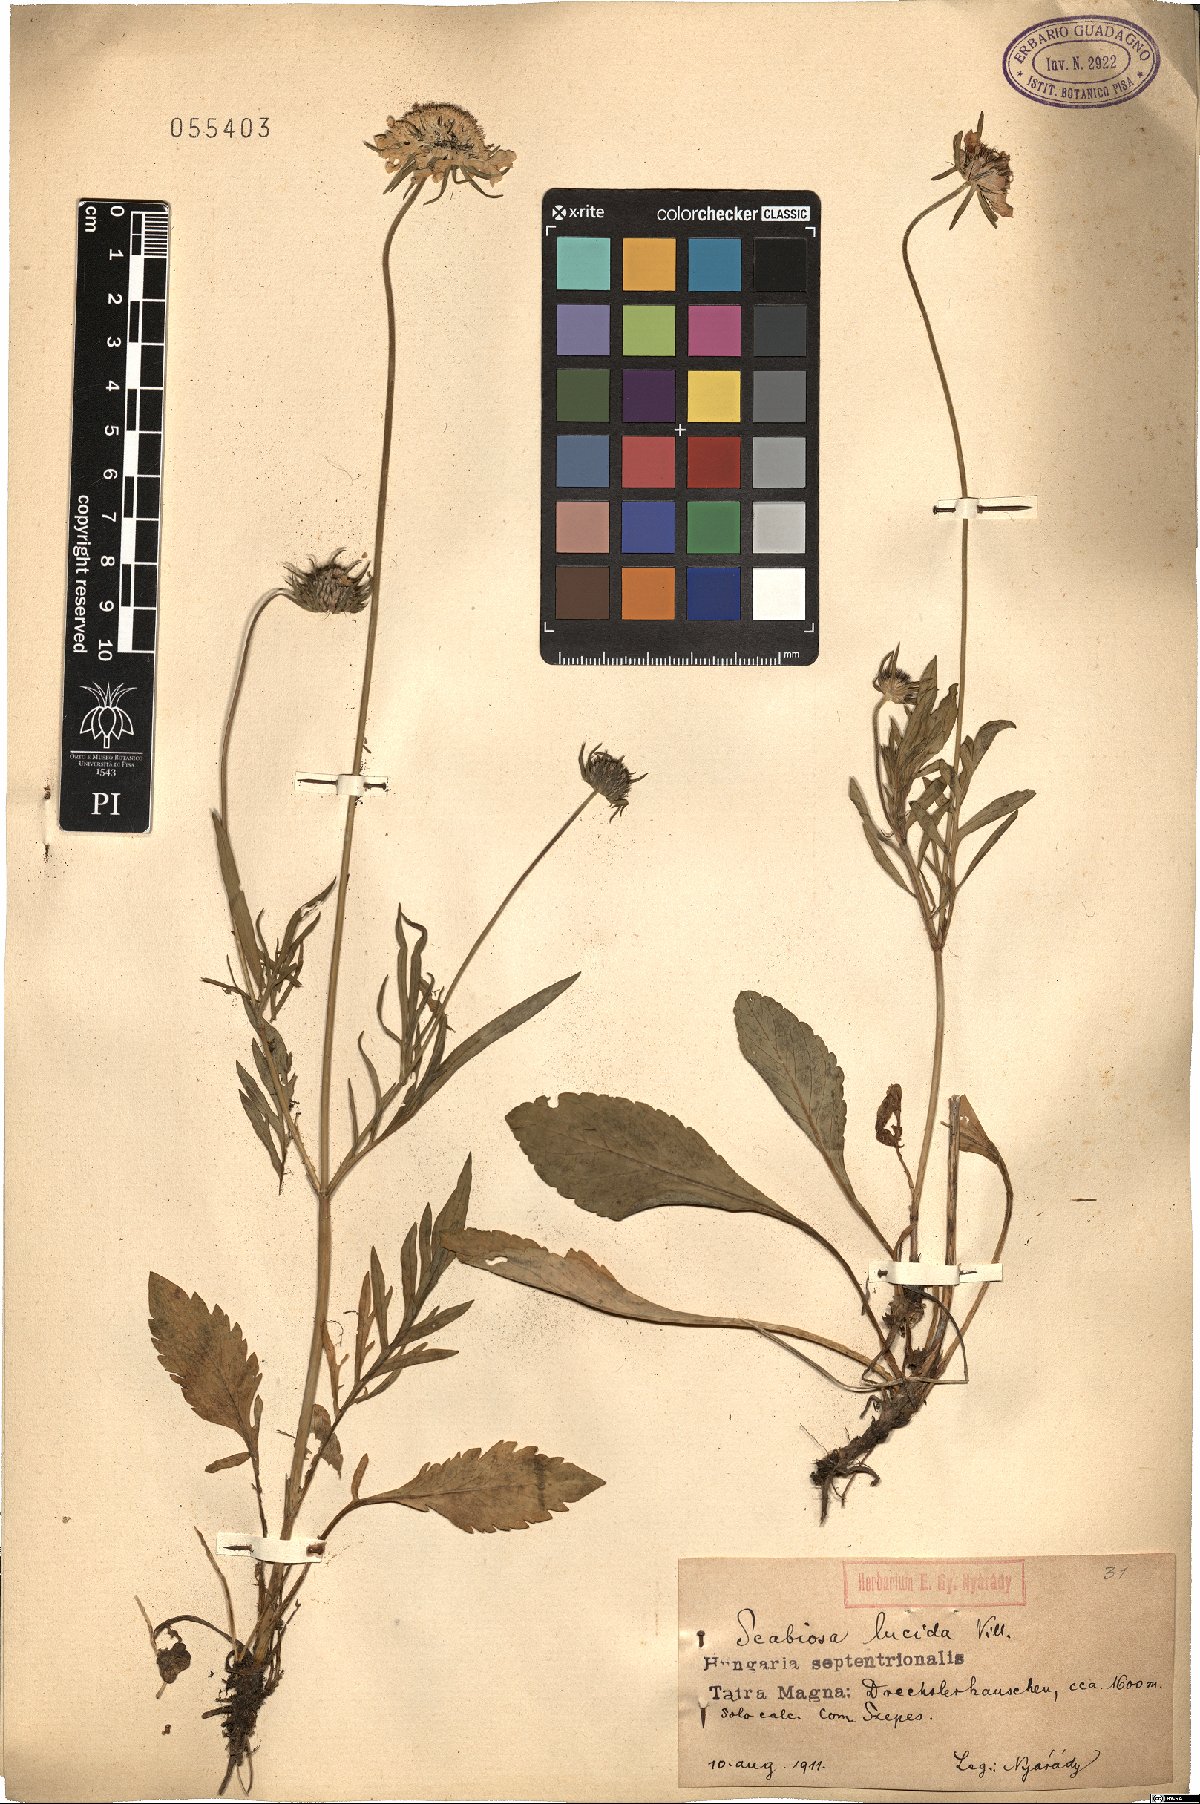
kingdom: Plantae
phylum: Tracheophyta
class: Magnoliopsida
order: Dipsacales
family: Caprifoliaceae
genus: Scabiosa
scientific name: Scabiosa lucida
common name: Shining scabious
